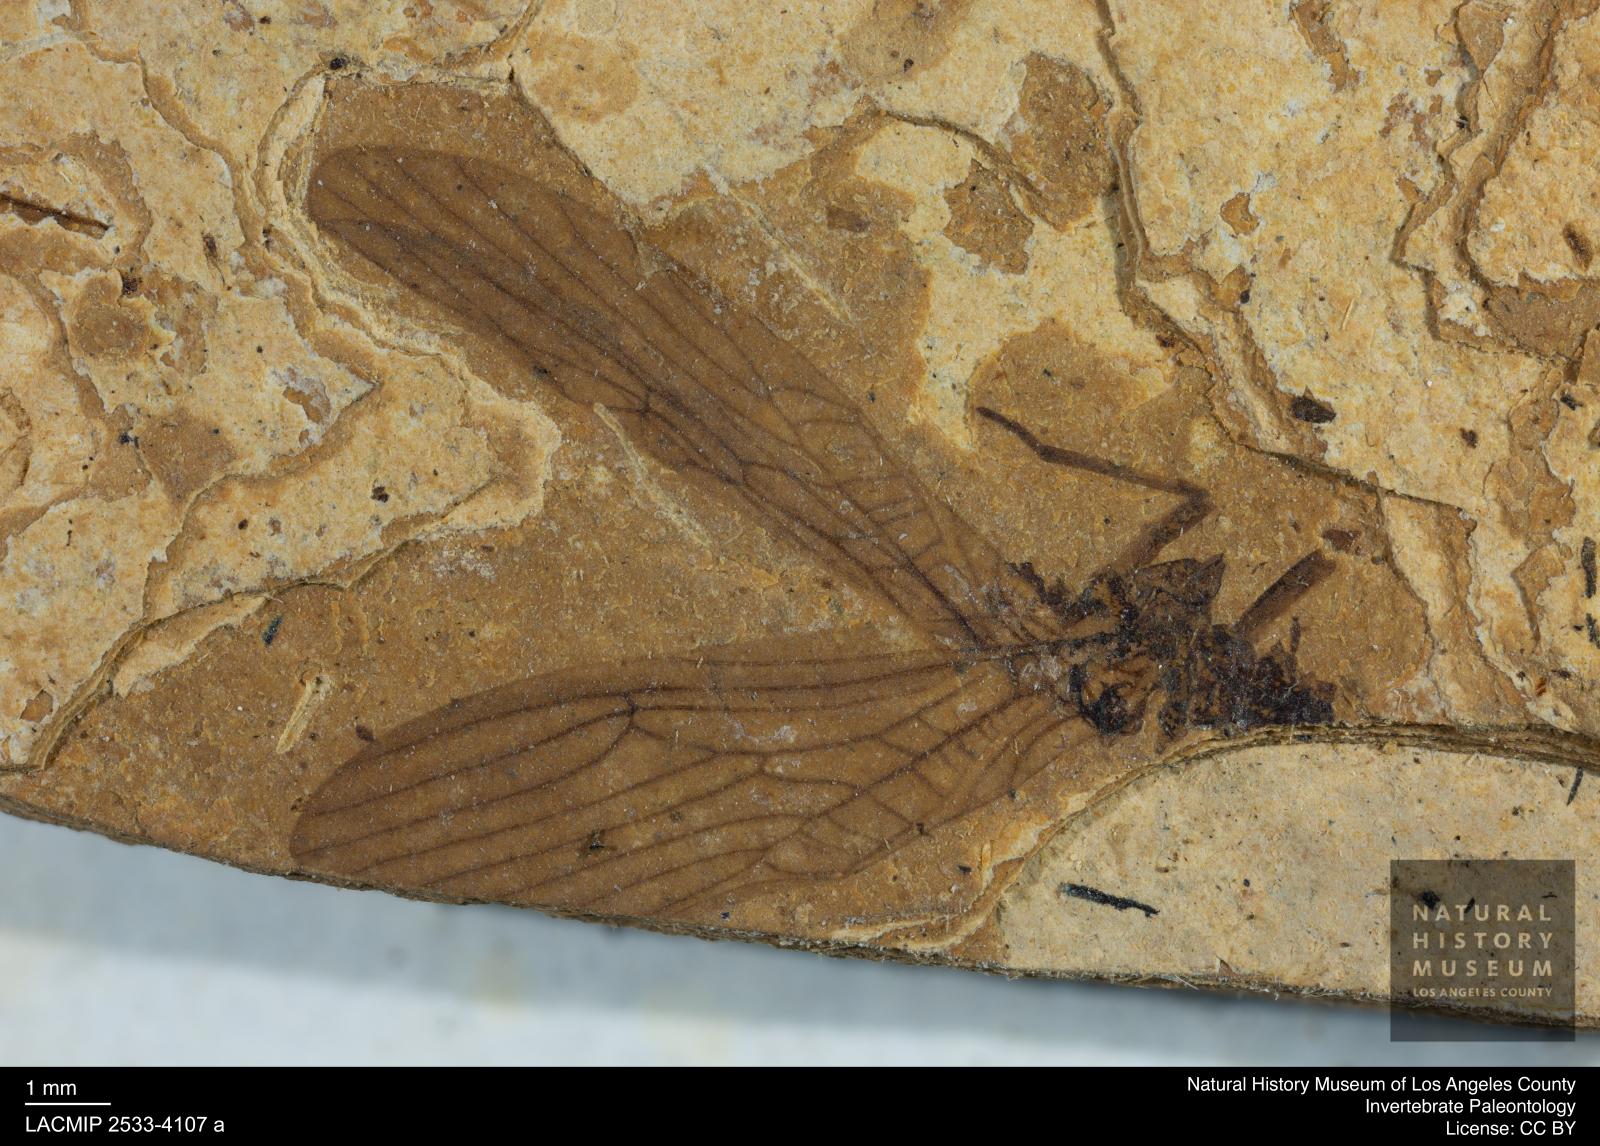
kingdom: Animalia
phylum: Arthropoda
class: Insecta
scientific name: Insecta
